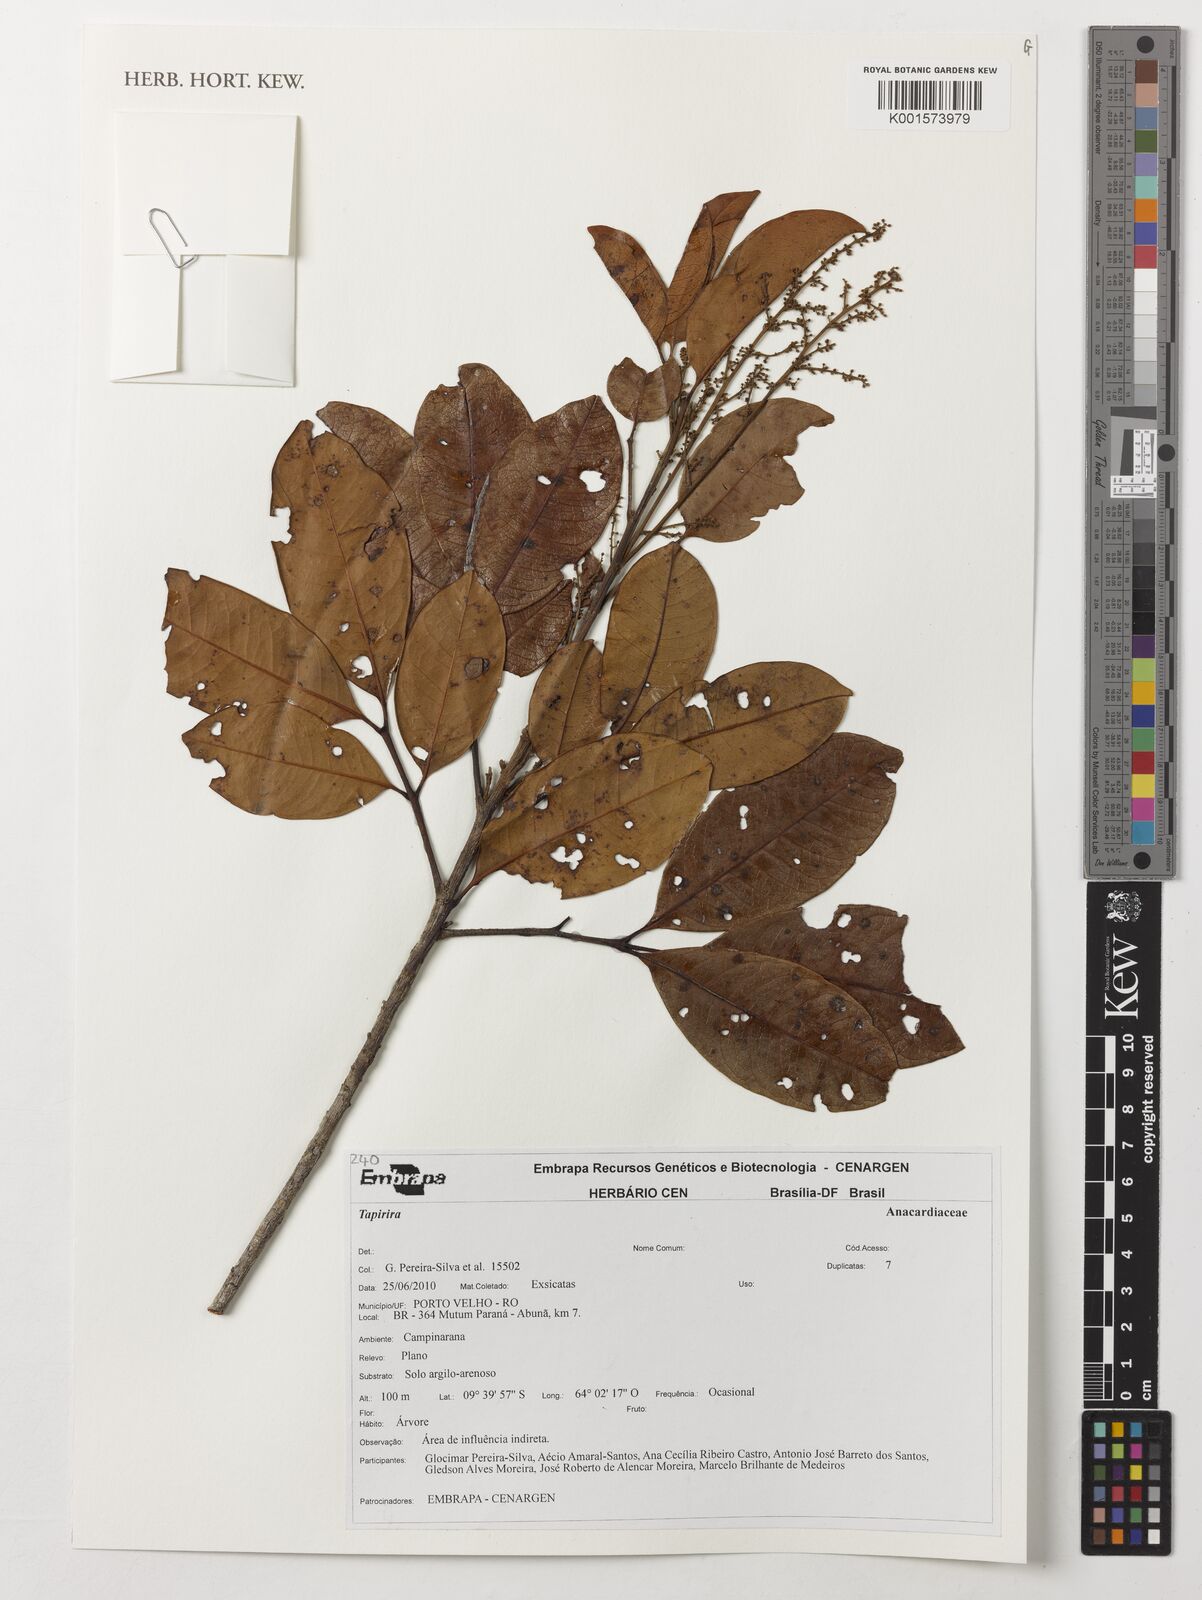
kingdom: Plantae
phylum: Tracheophyta
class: Magnoliopsida
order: Sapindales
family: Anacardiaceae
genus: Tapirira
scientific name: Tapirira
